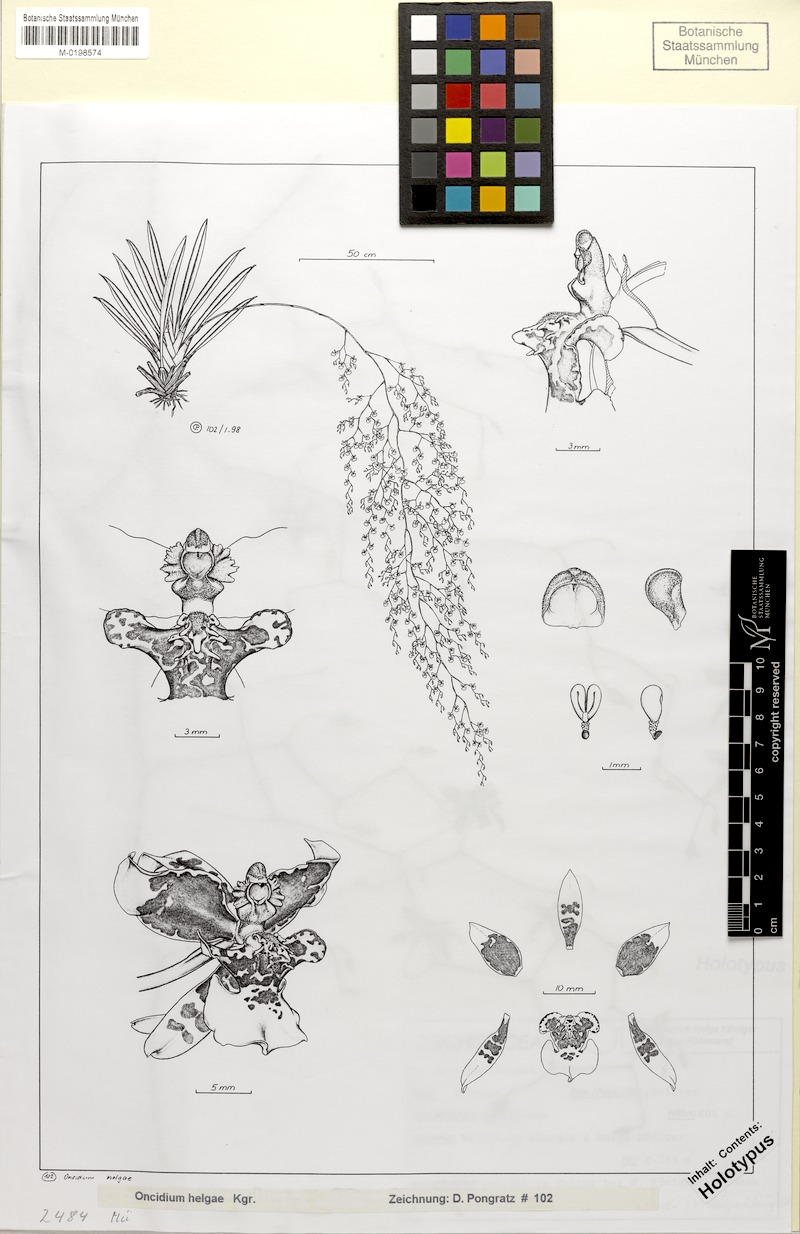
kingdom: Plantae
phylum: Tracheophyta
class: Liliopsida
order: Asparagales
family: Orchidaceae
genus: Cyrtochiloides
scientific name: Cyrtochiloides riopalenqueana
